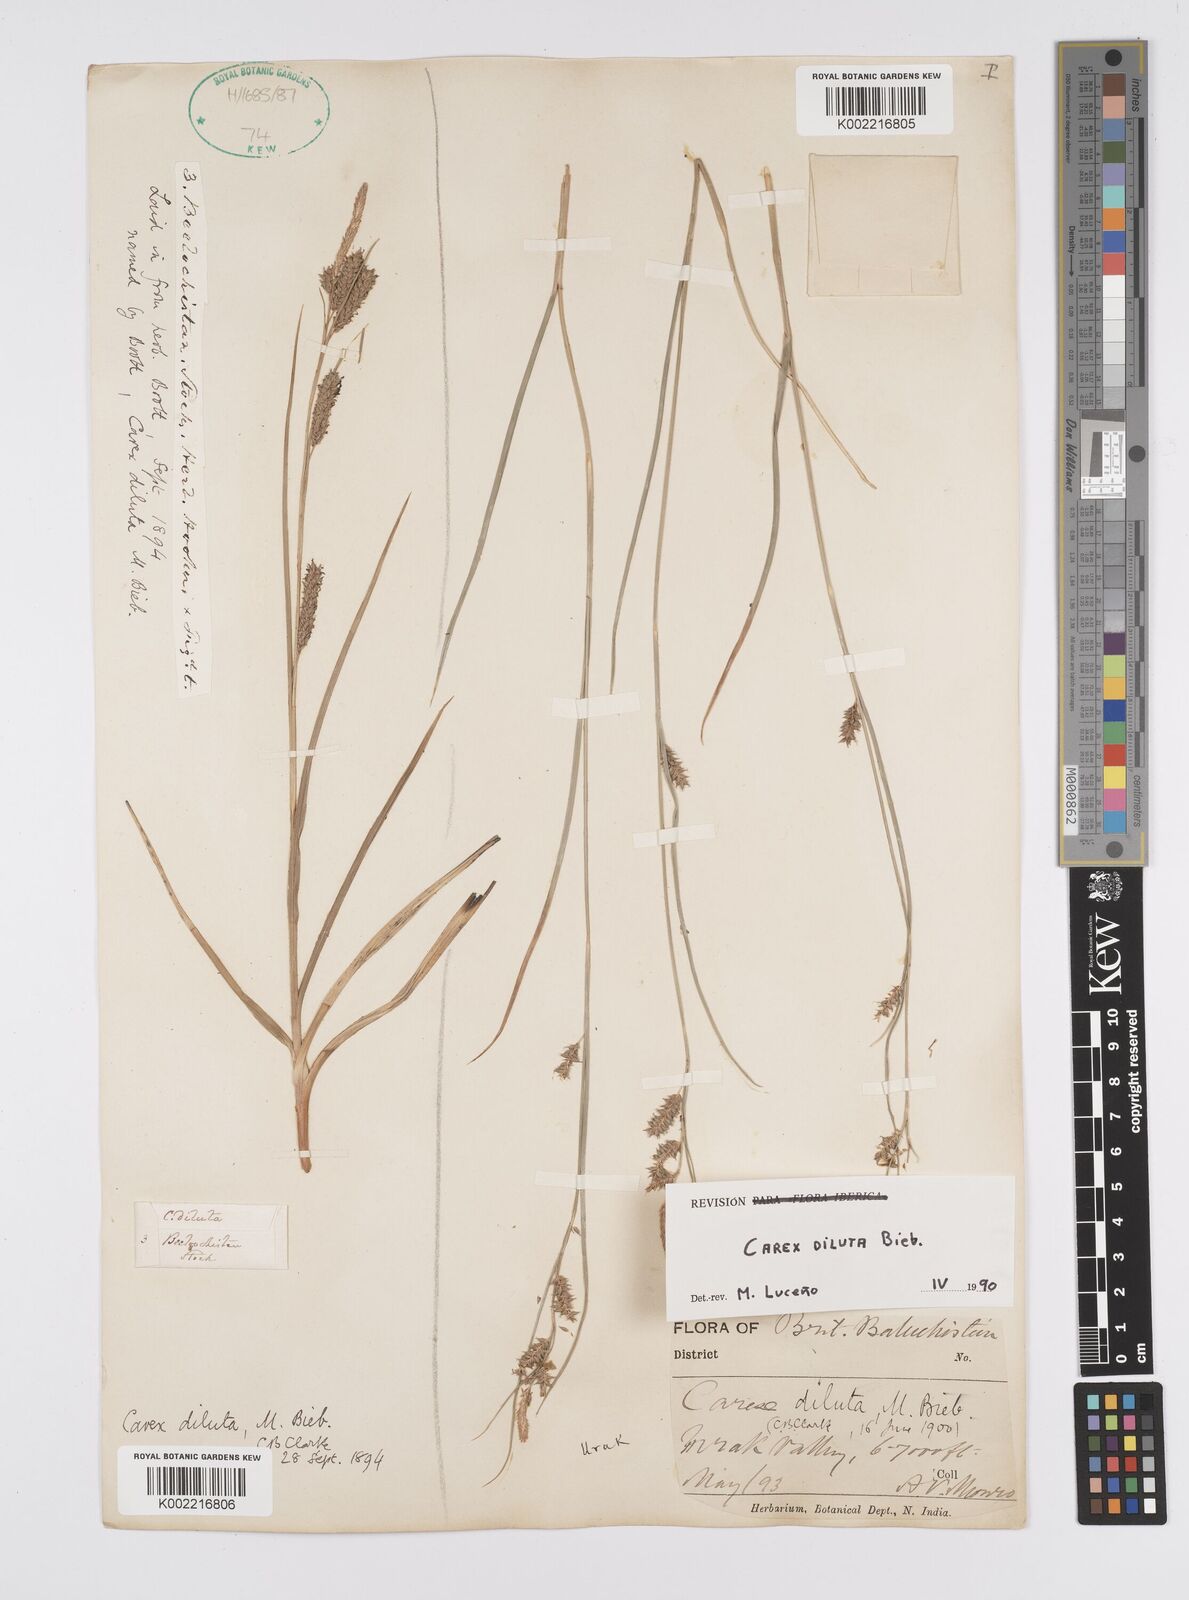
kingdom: Plantae
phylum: Tracheophyta
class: Liliopsida
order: Poales
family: Cyperaceae
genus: Carex
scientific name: Carex diluta
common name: Sedge
